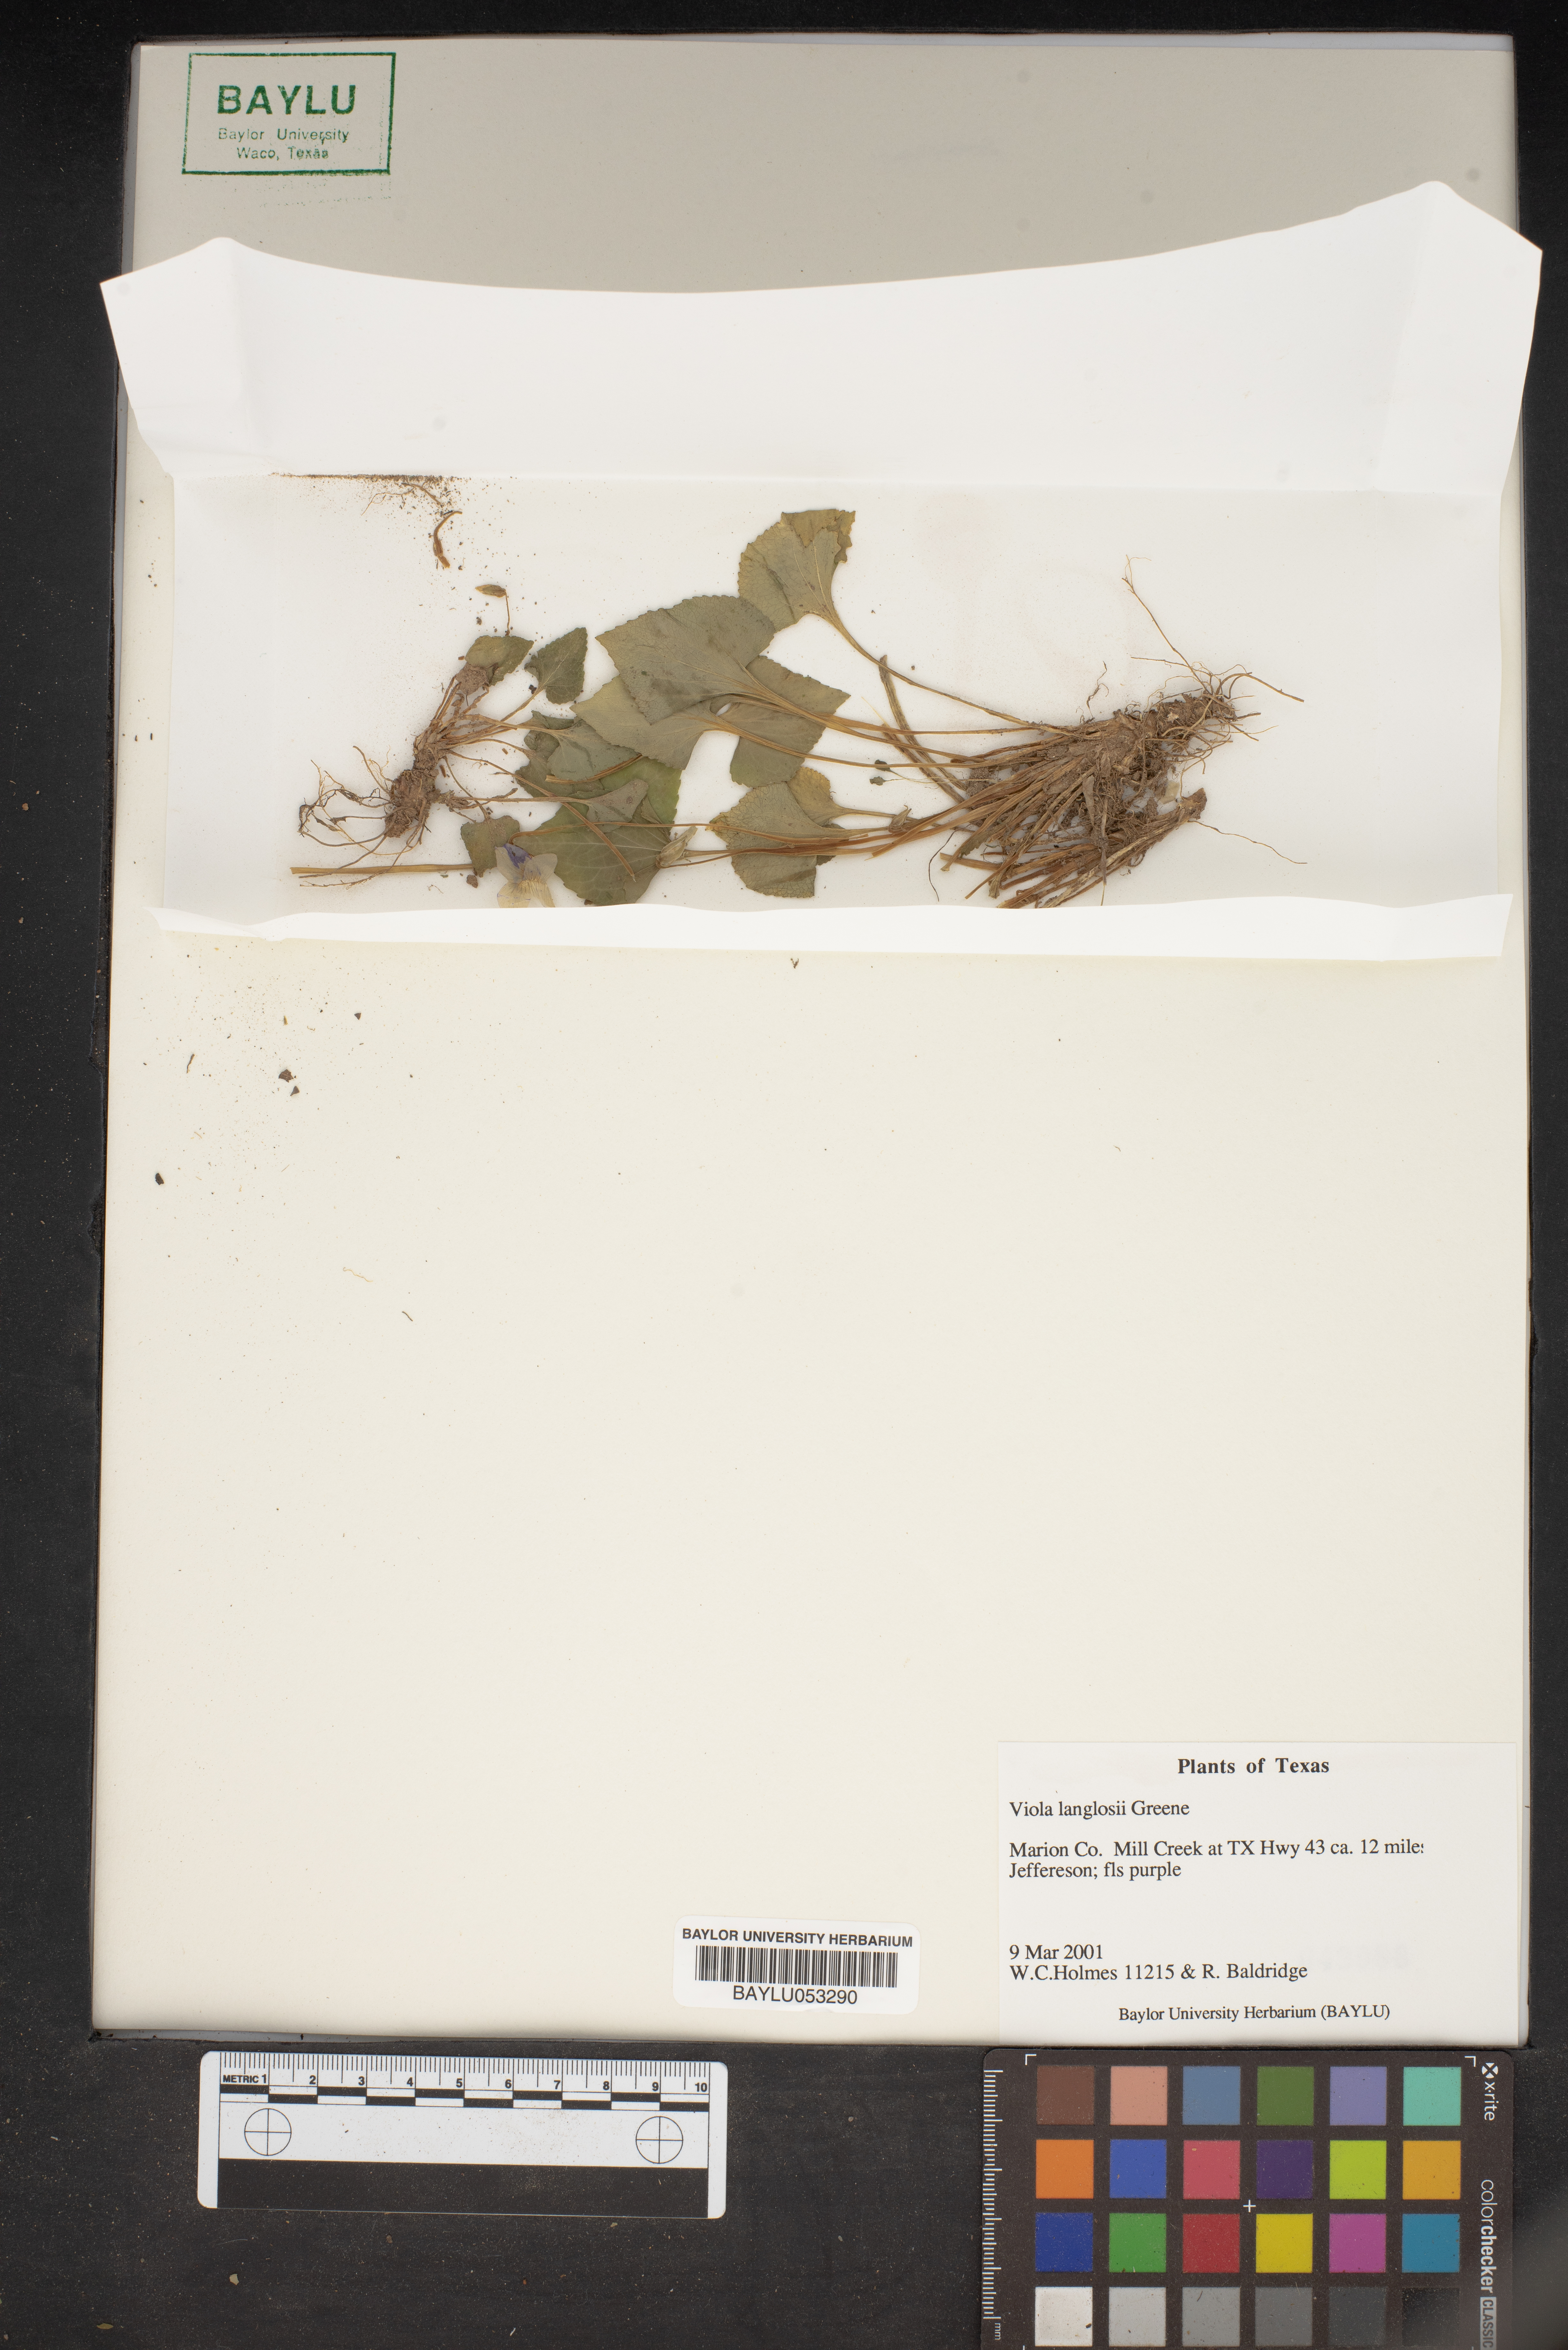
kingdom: Plantae
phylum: Tracheophyta
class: Magnoliopsida
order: Malpighiales
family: Violaceae
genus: Viola
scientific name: Viola langloisii
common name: Langlois' violet
